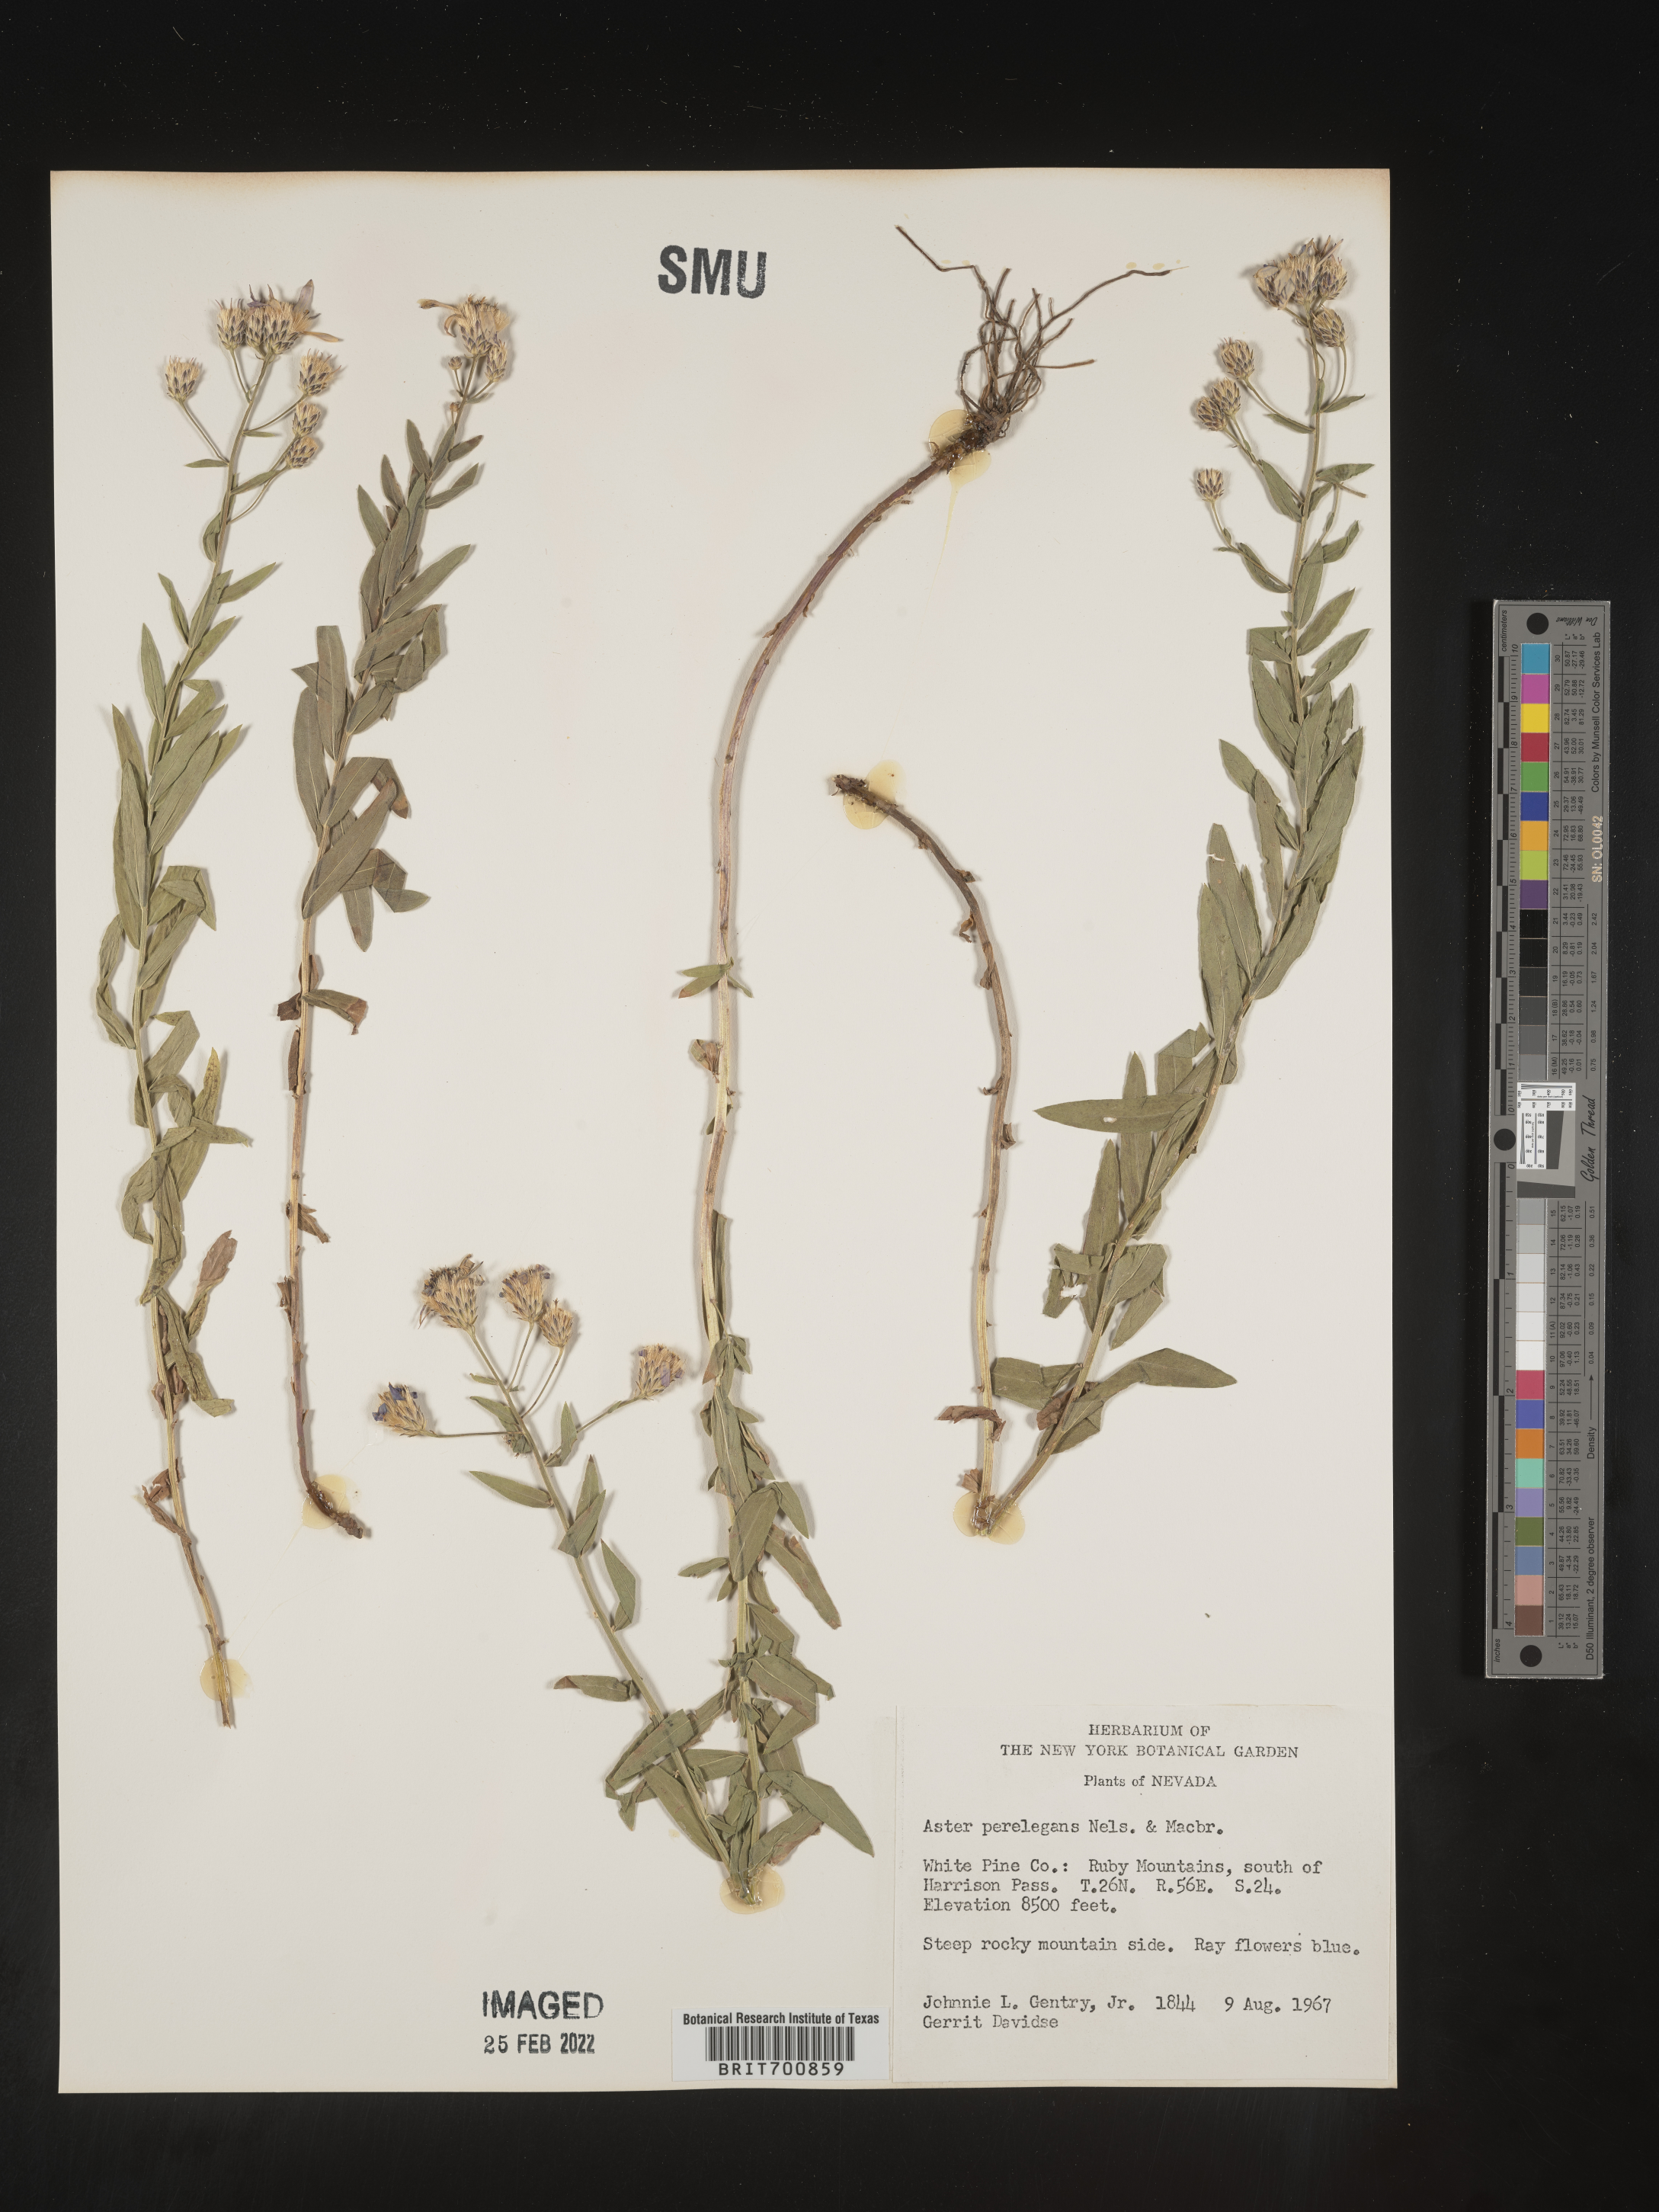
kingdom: Plantae
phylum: Tracheophyta
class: Magnoliopsida
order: Asterales
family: Asteraceae
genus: Doellingeria
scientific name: Doellingeria elegans
